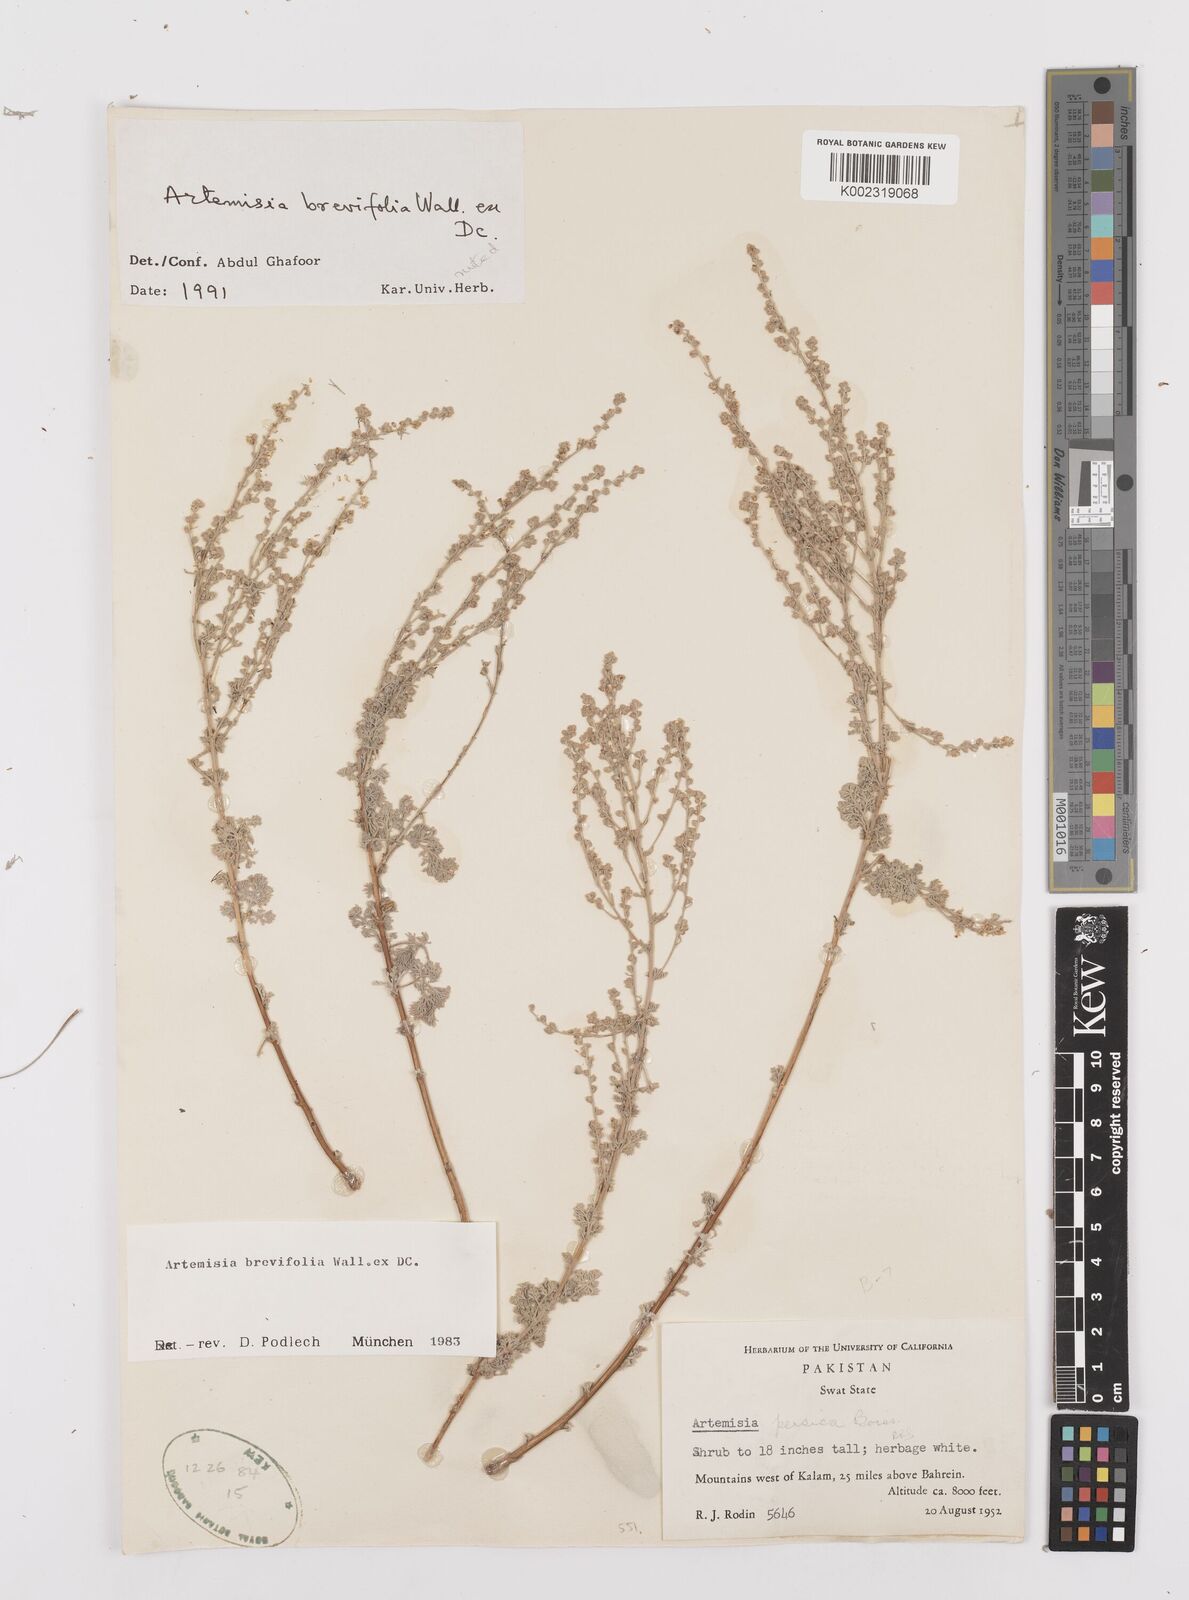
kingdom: Plantae
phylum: Tracheophyta
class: Magnoliopsida
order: Asterales
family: Asteraceae
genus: Artemisia
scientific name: Artemisia brevifolia
